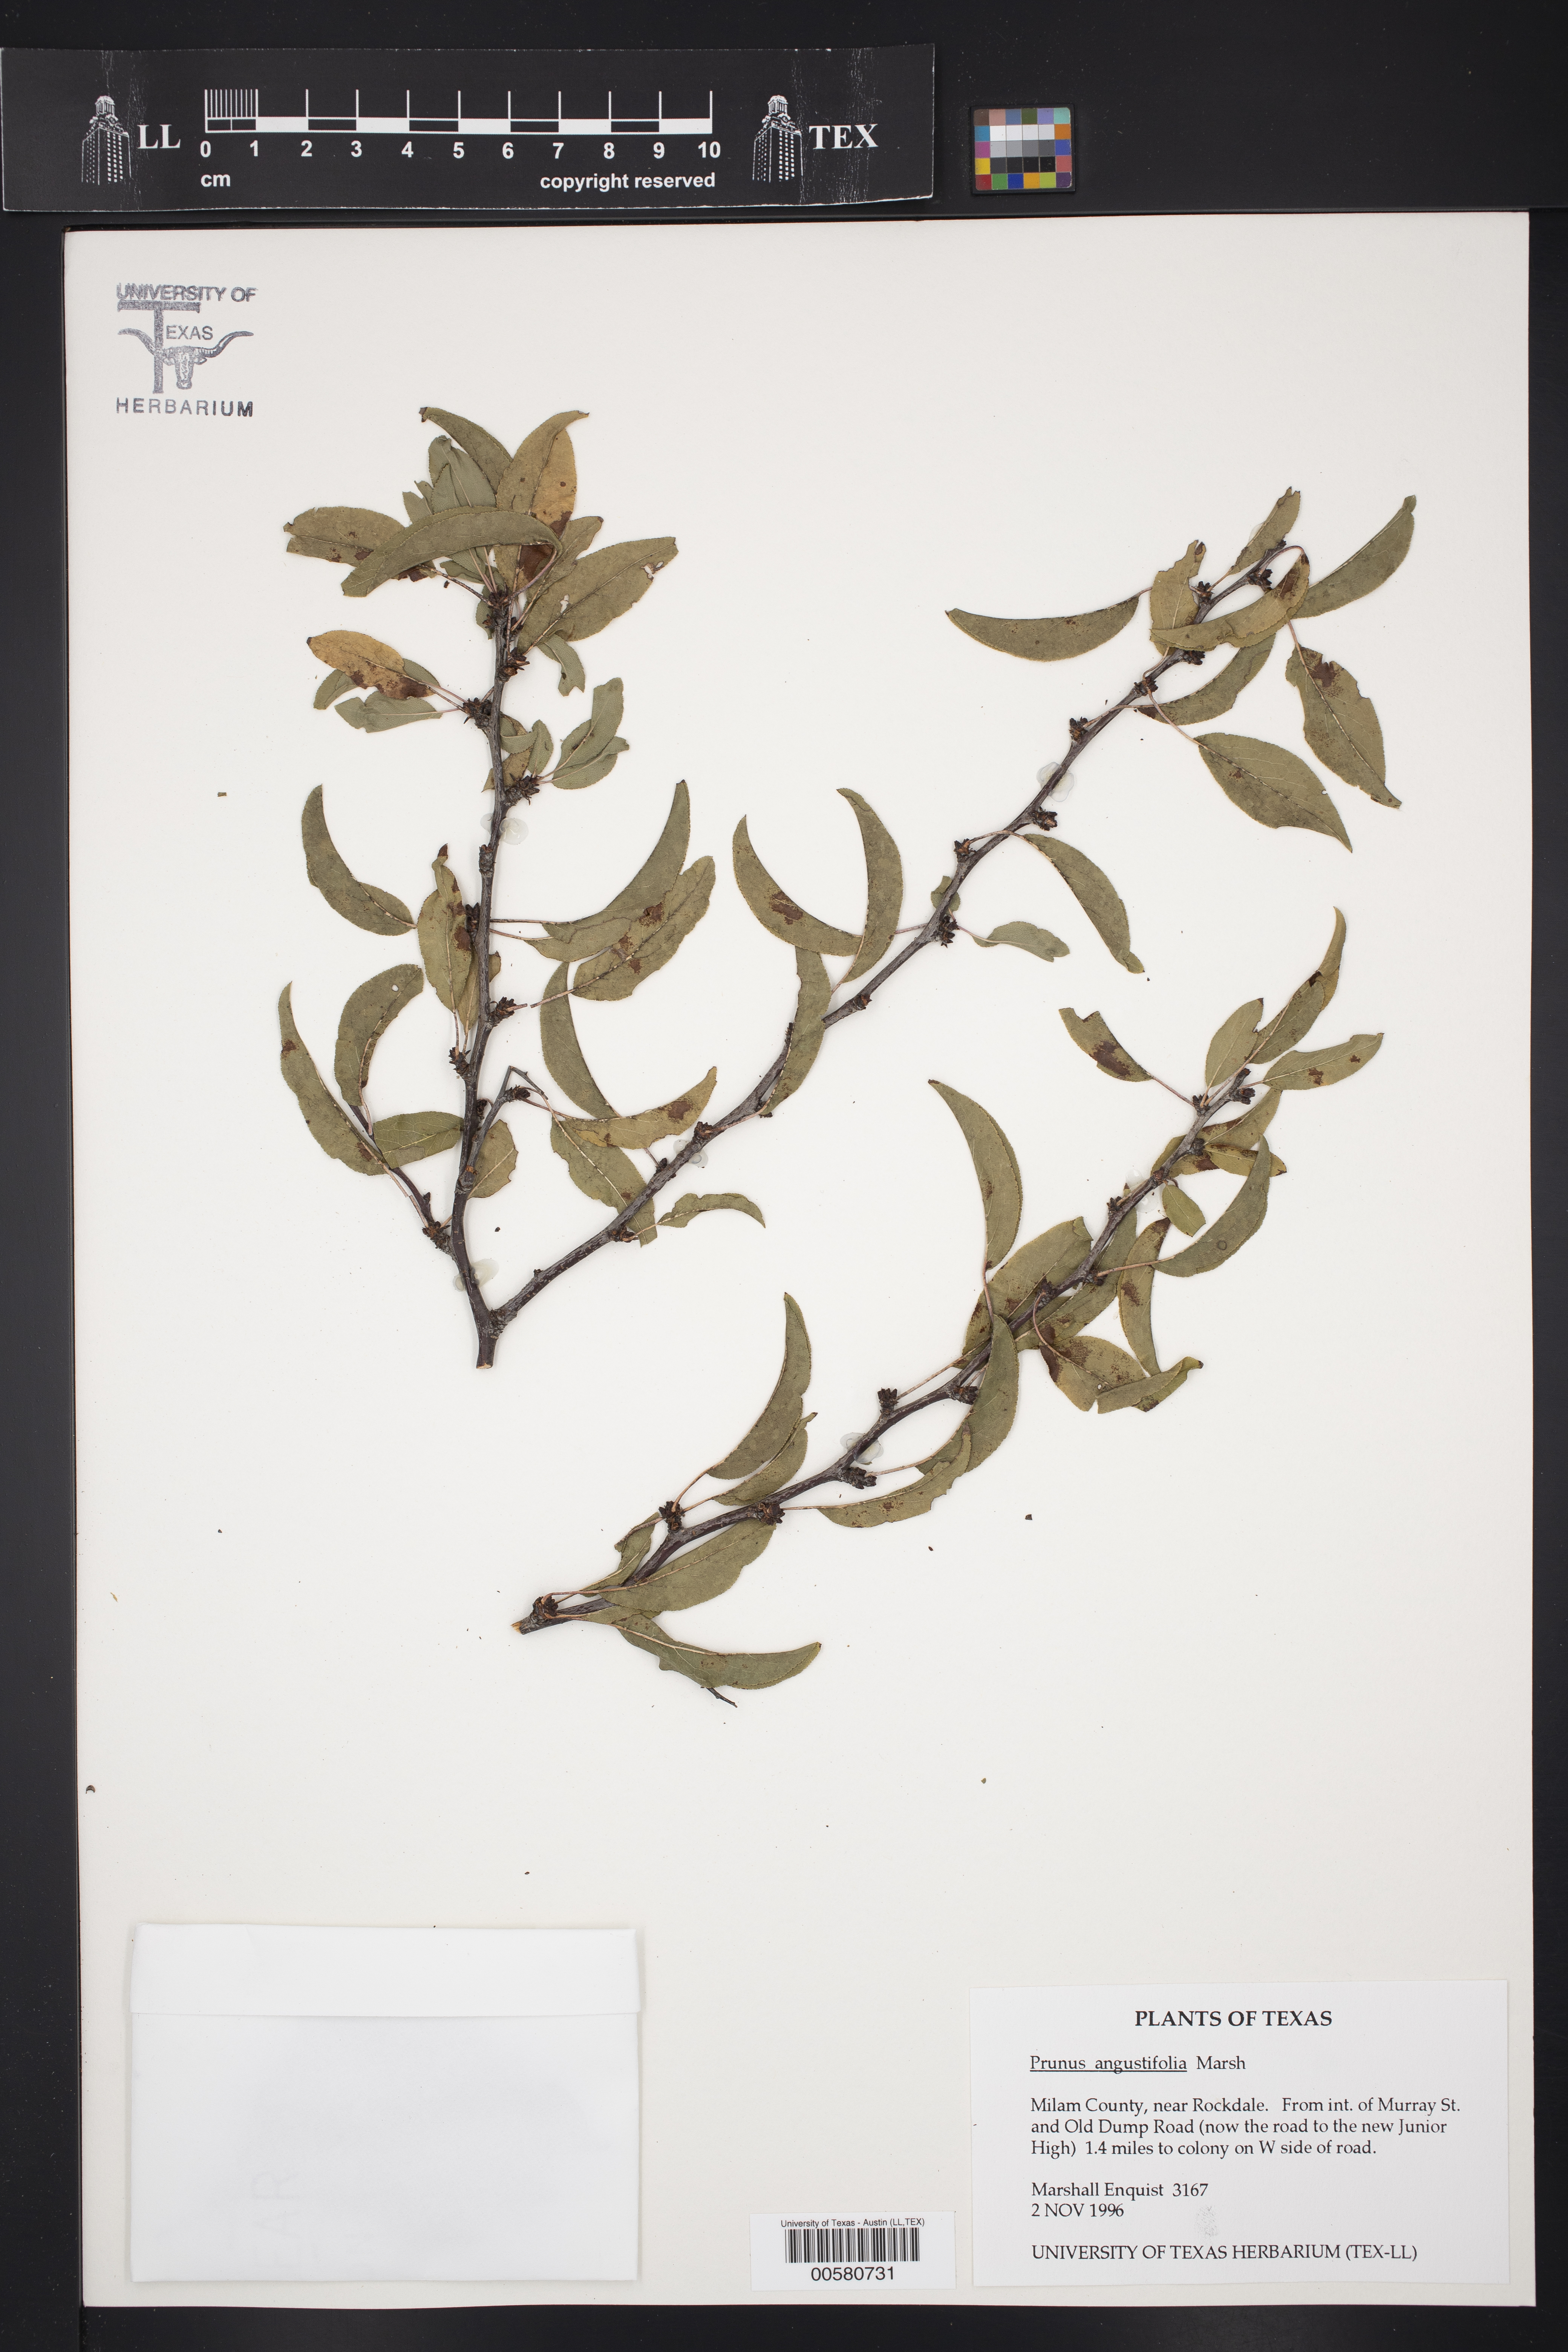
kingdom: Plantae
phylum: Tracheophyta
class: Magnoliopsida
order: Rosales
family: Rosaceae
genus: Prunus
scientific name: Prunus angustifolia
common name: Cherokee plum
